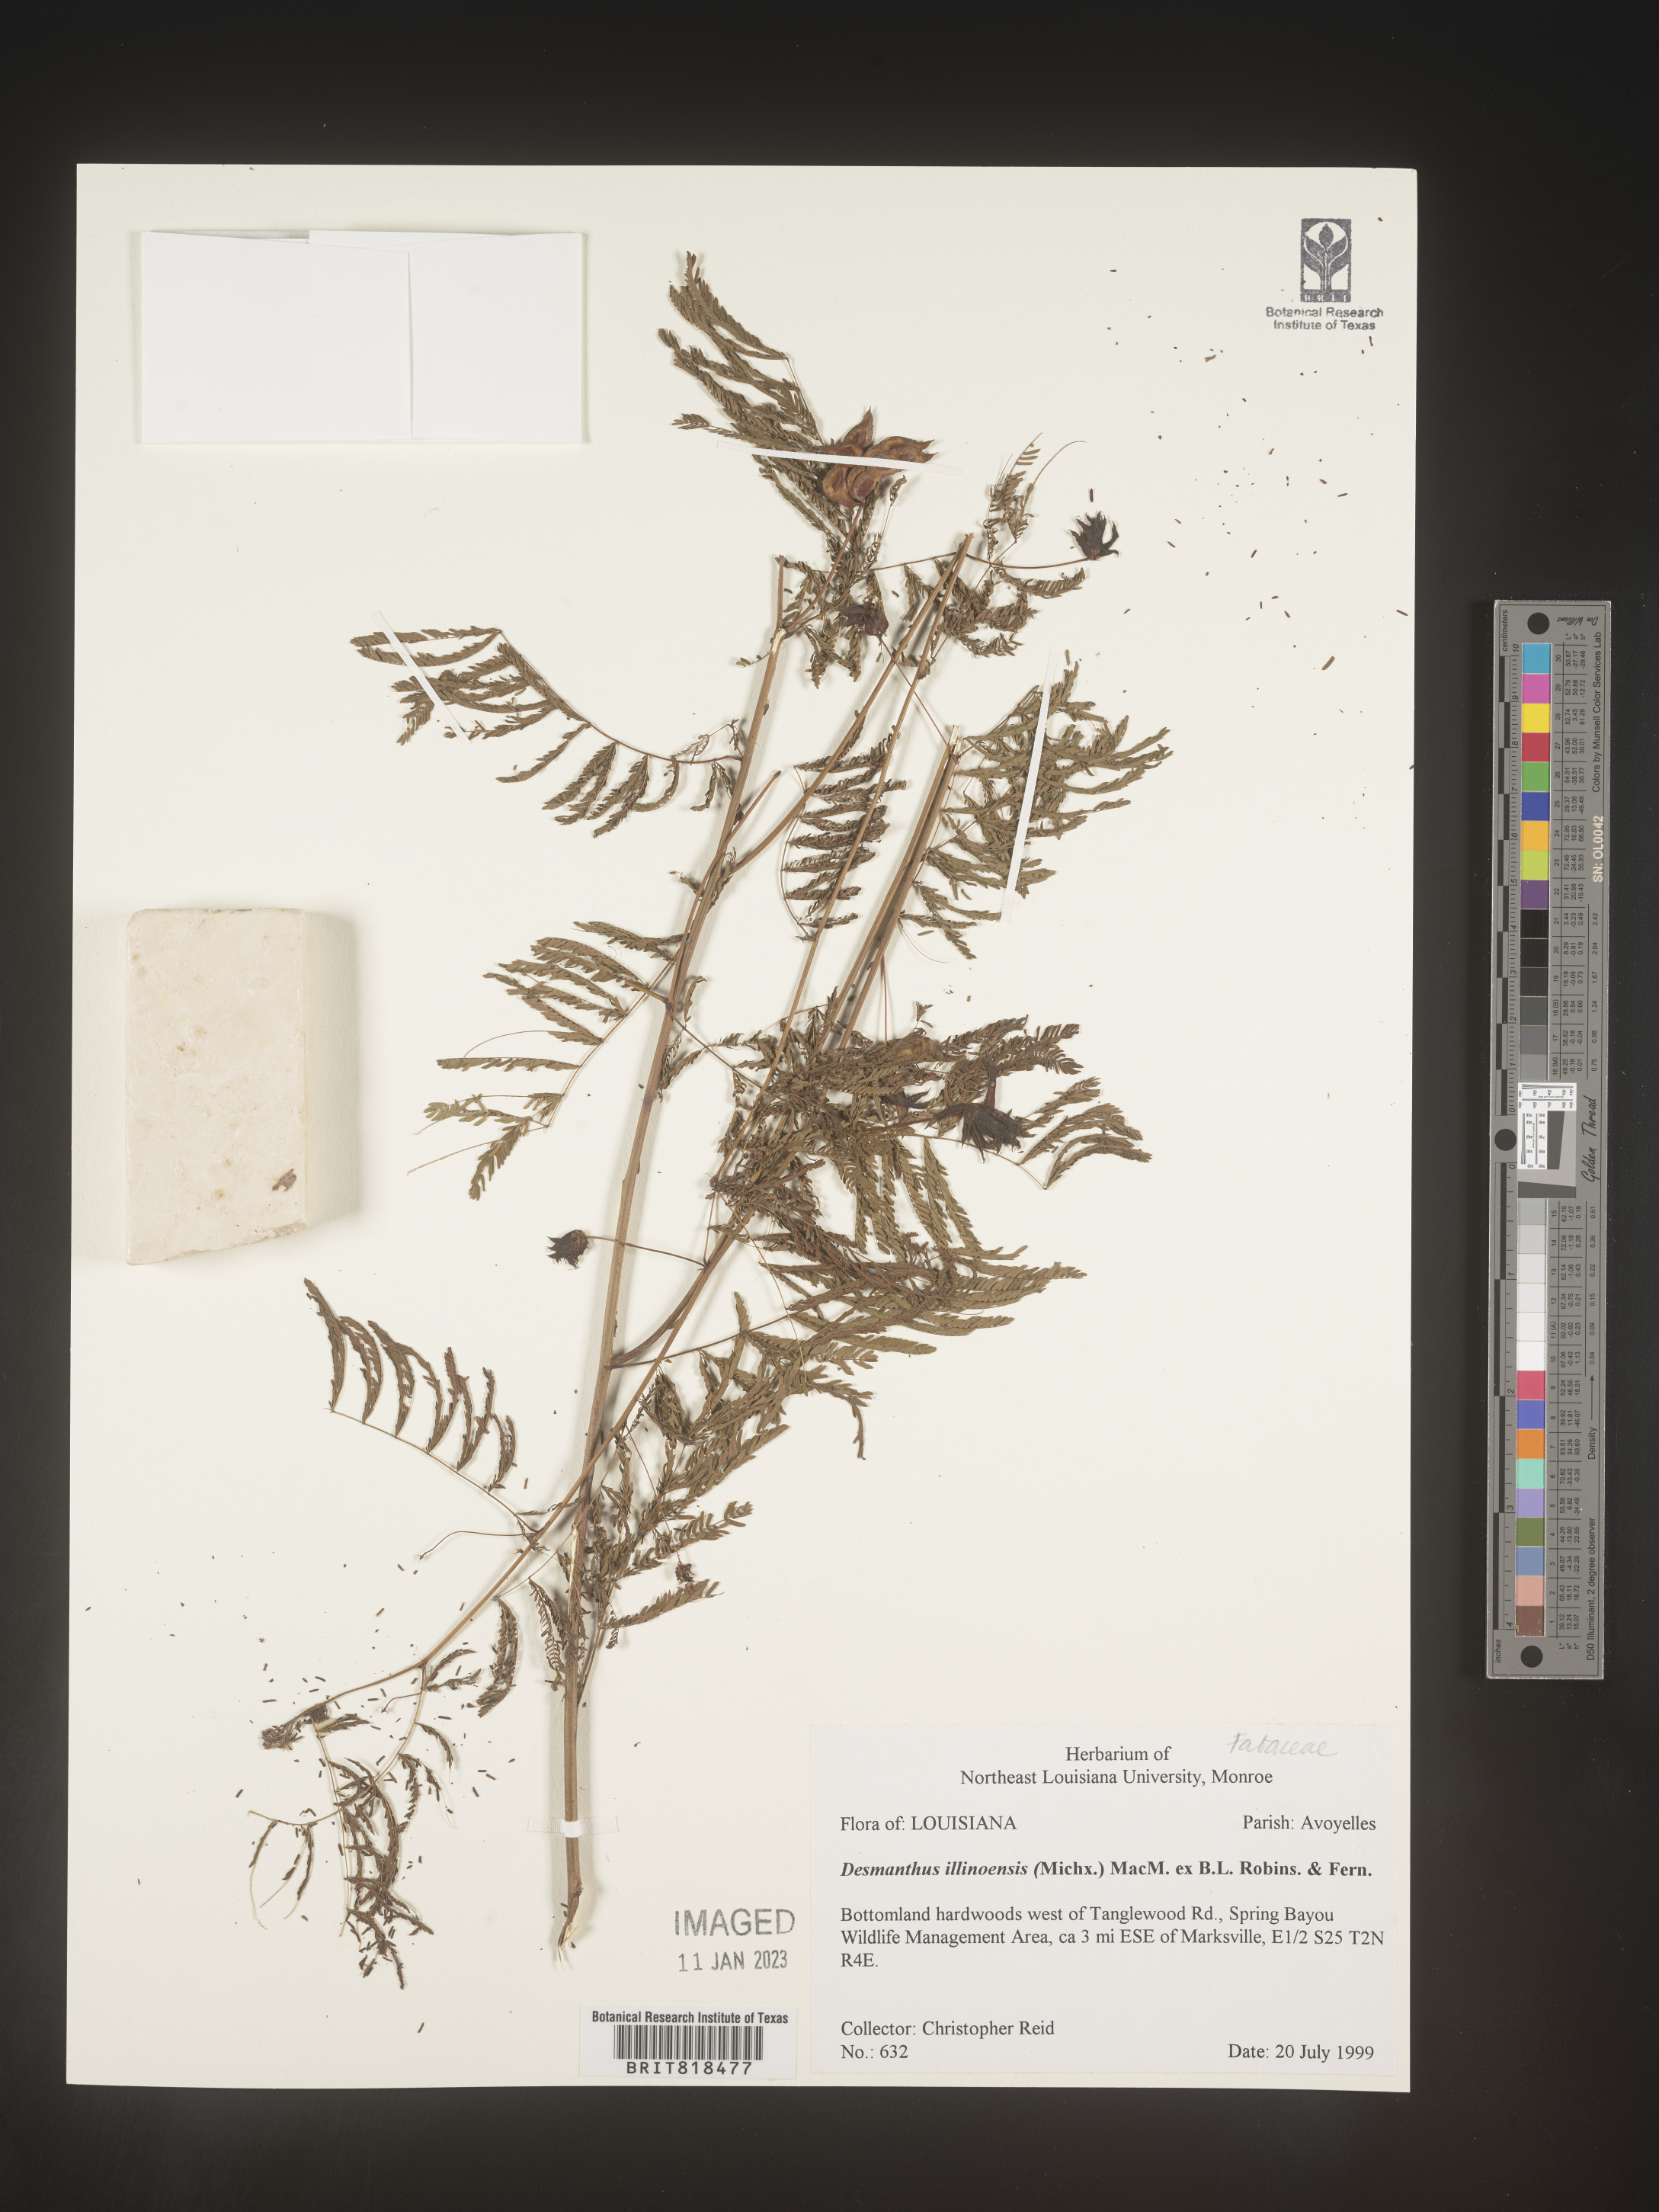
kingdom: Plantae
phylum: Tracheophyta
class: Magnoliopsida
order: Fabales
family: Fabaceae
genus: Desmanthus
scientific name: Desmanthus illinoensis
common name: Illinois bundle-flower
